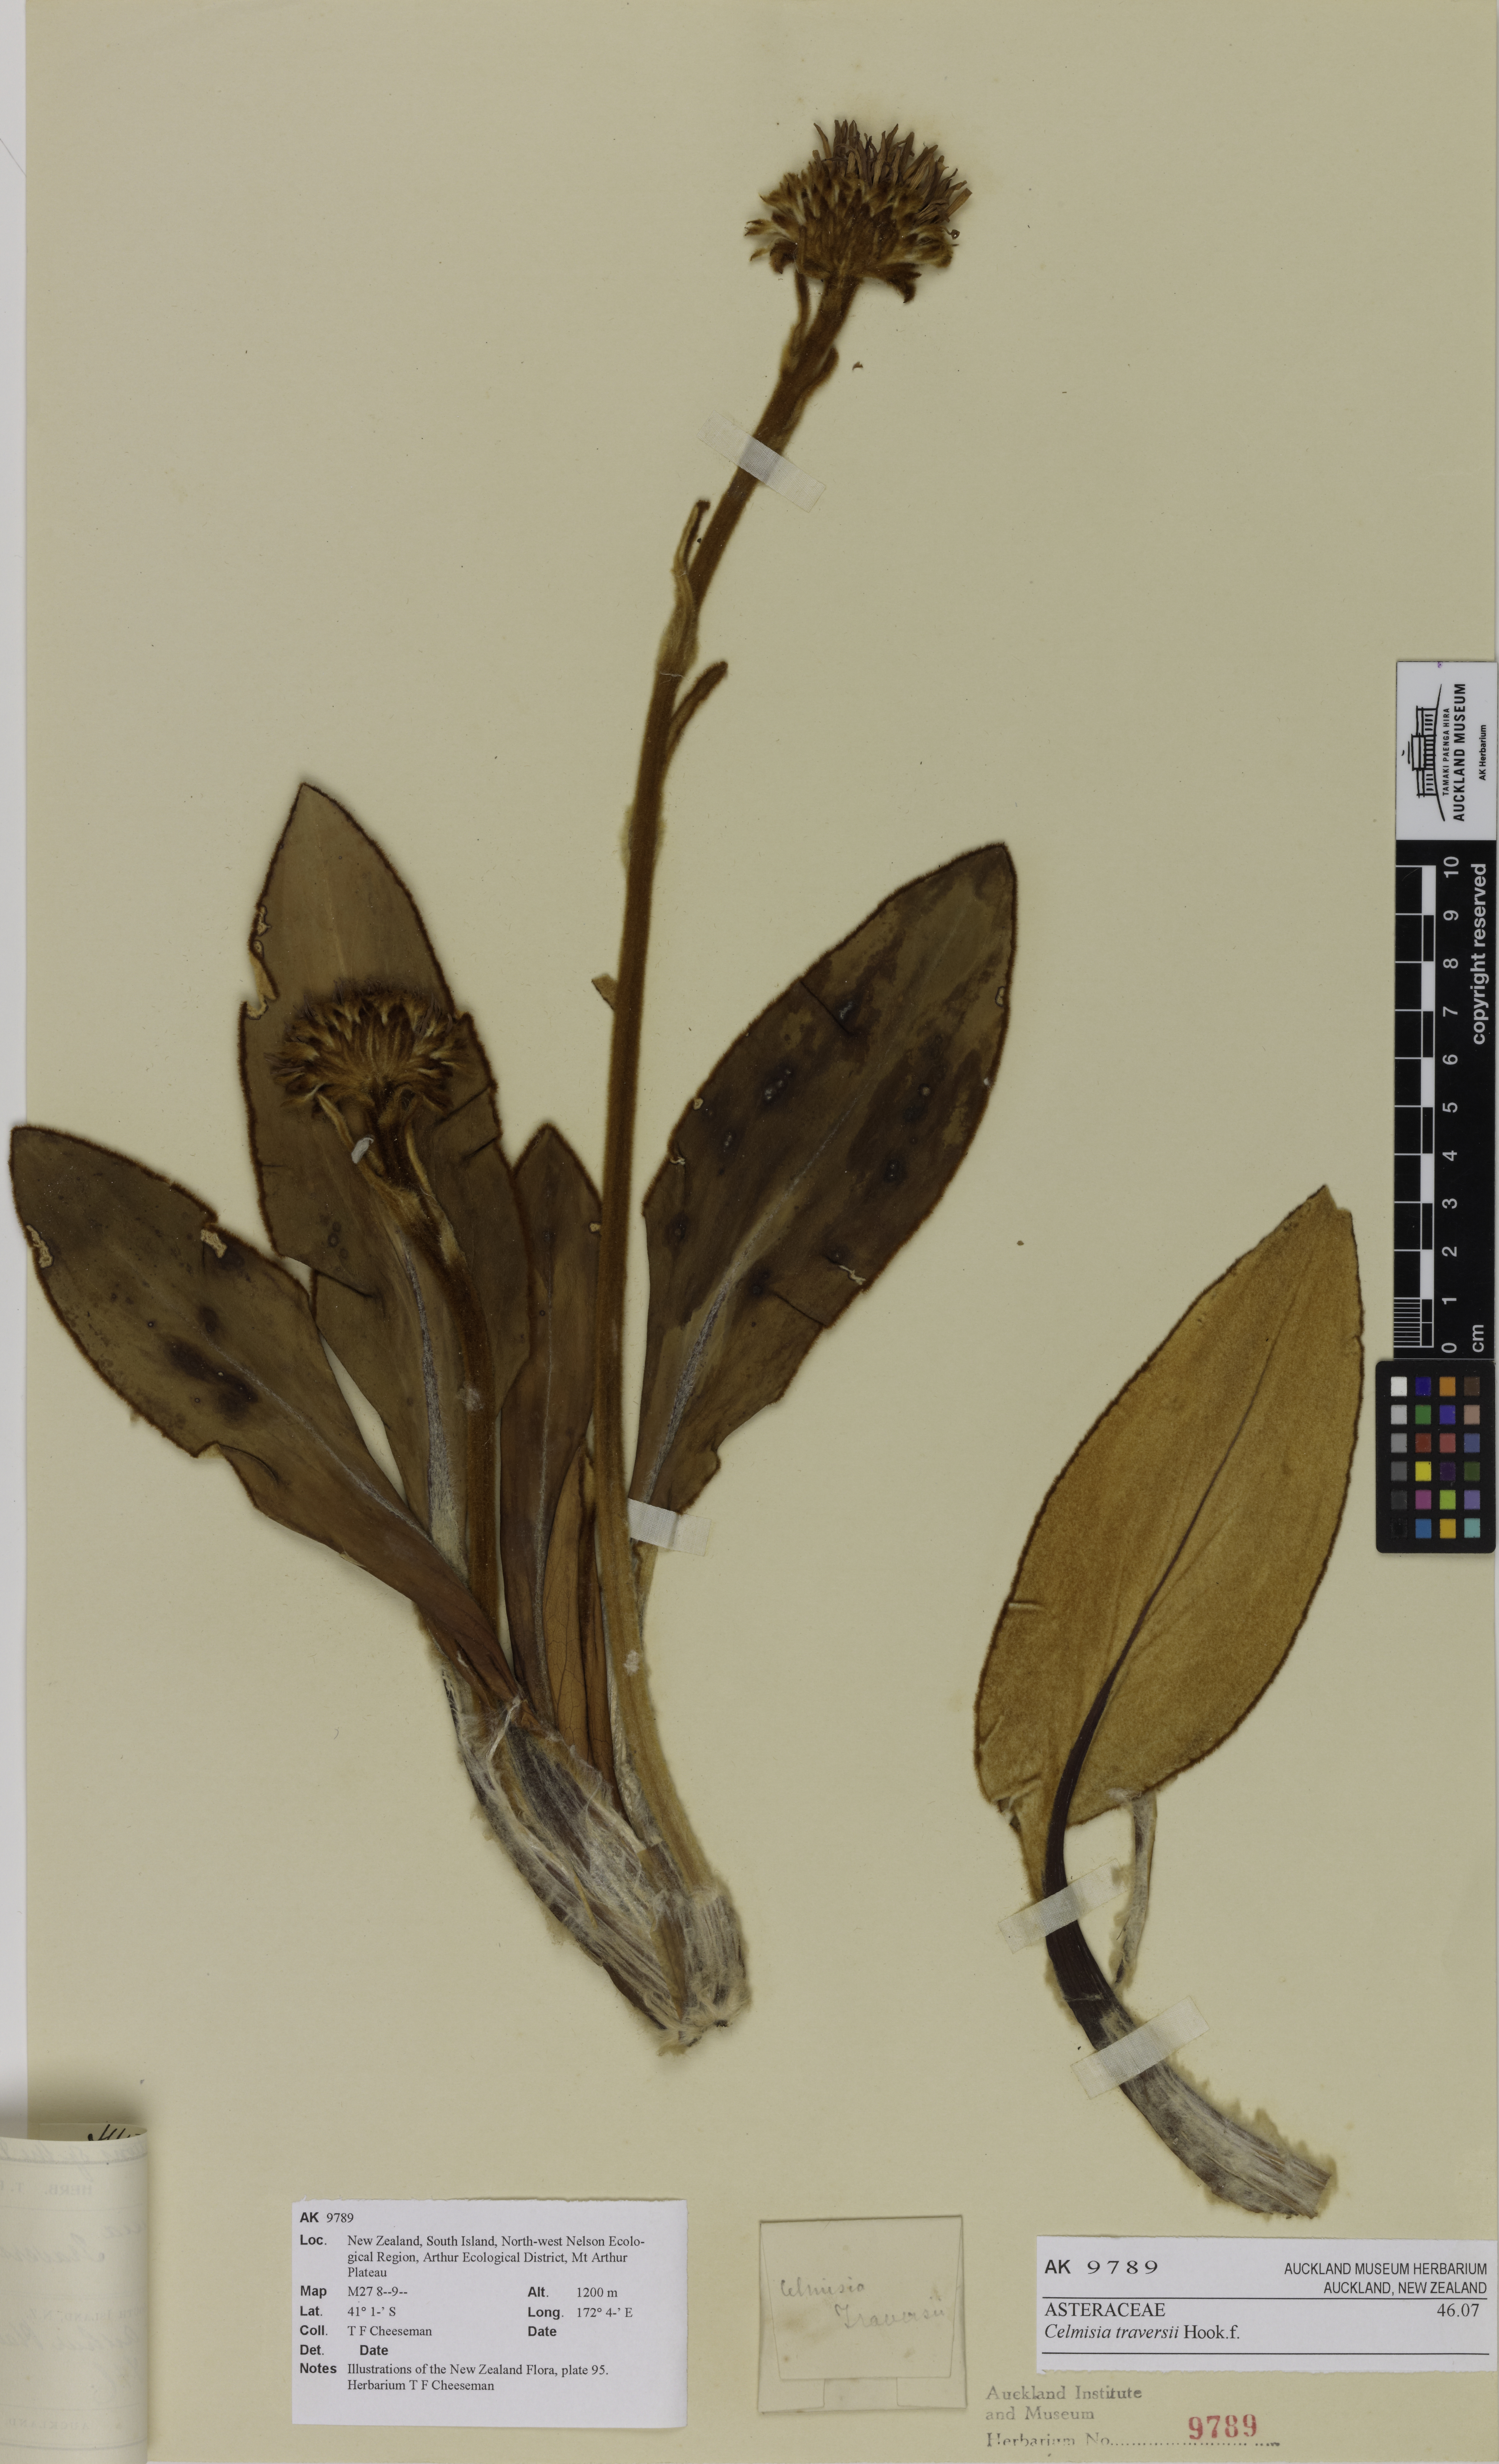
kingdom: Plantae
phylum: Tracheophyta
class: Magnoliopsida
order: Asterales
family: Asteraceae
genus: Celmisia
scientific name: Celmisia traversii
